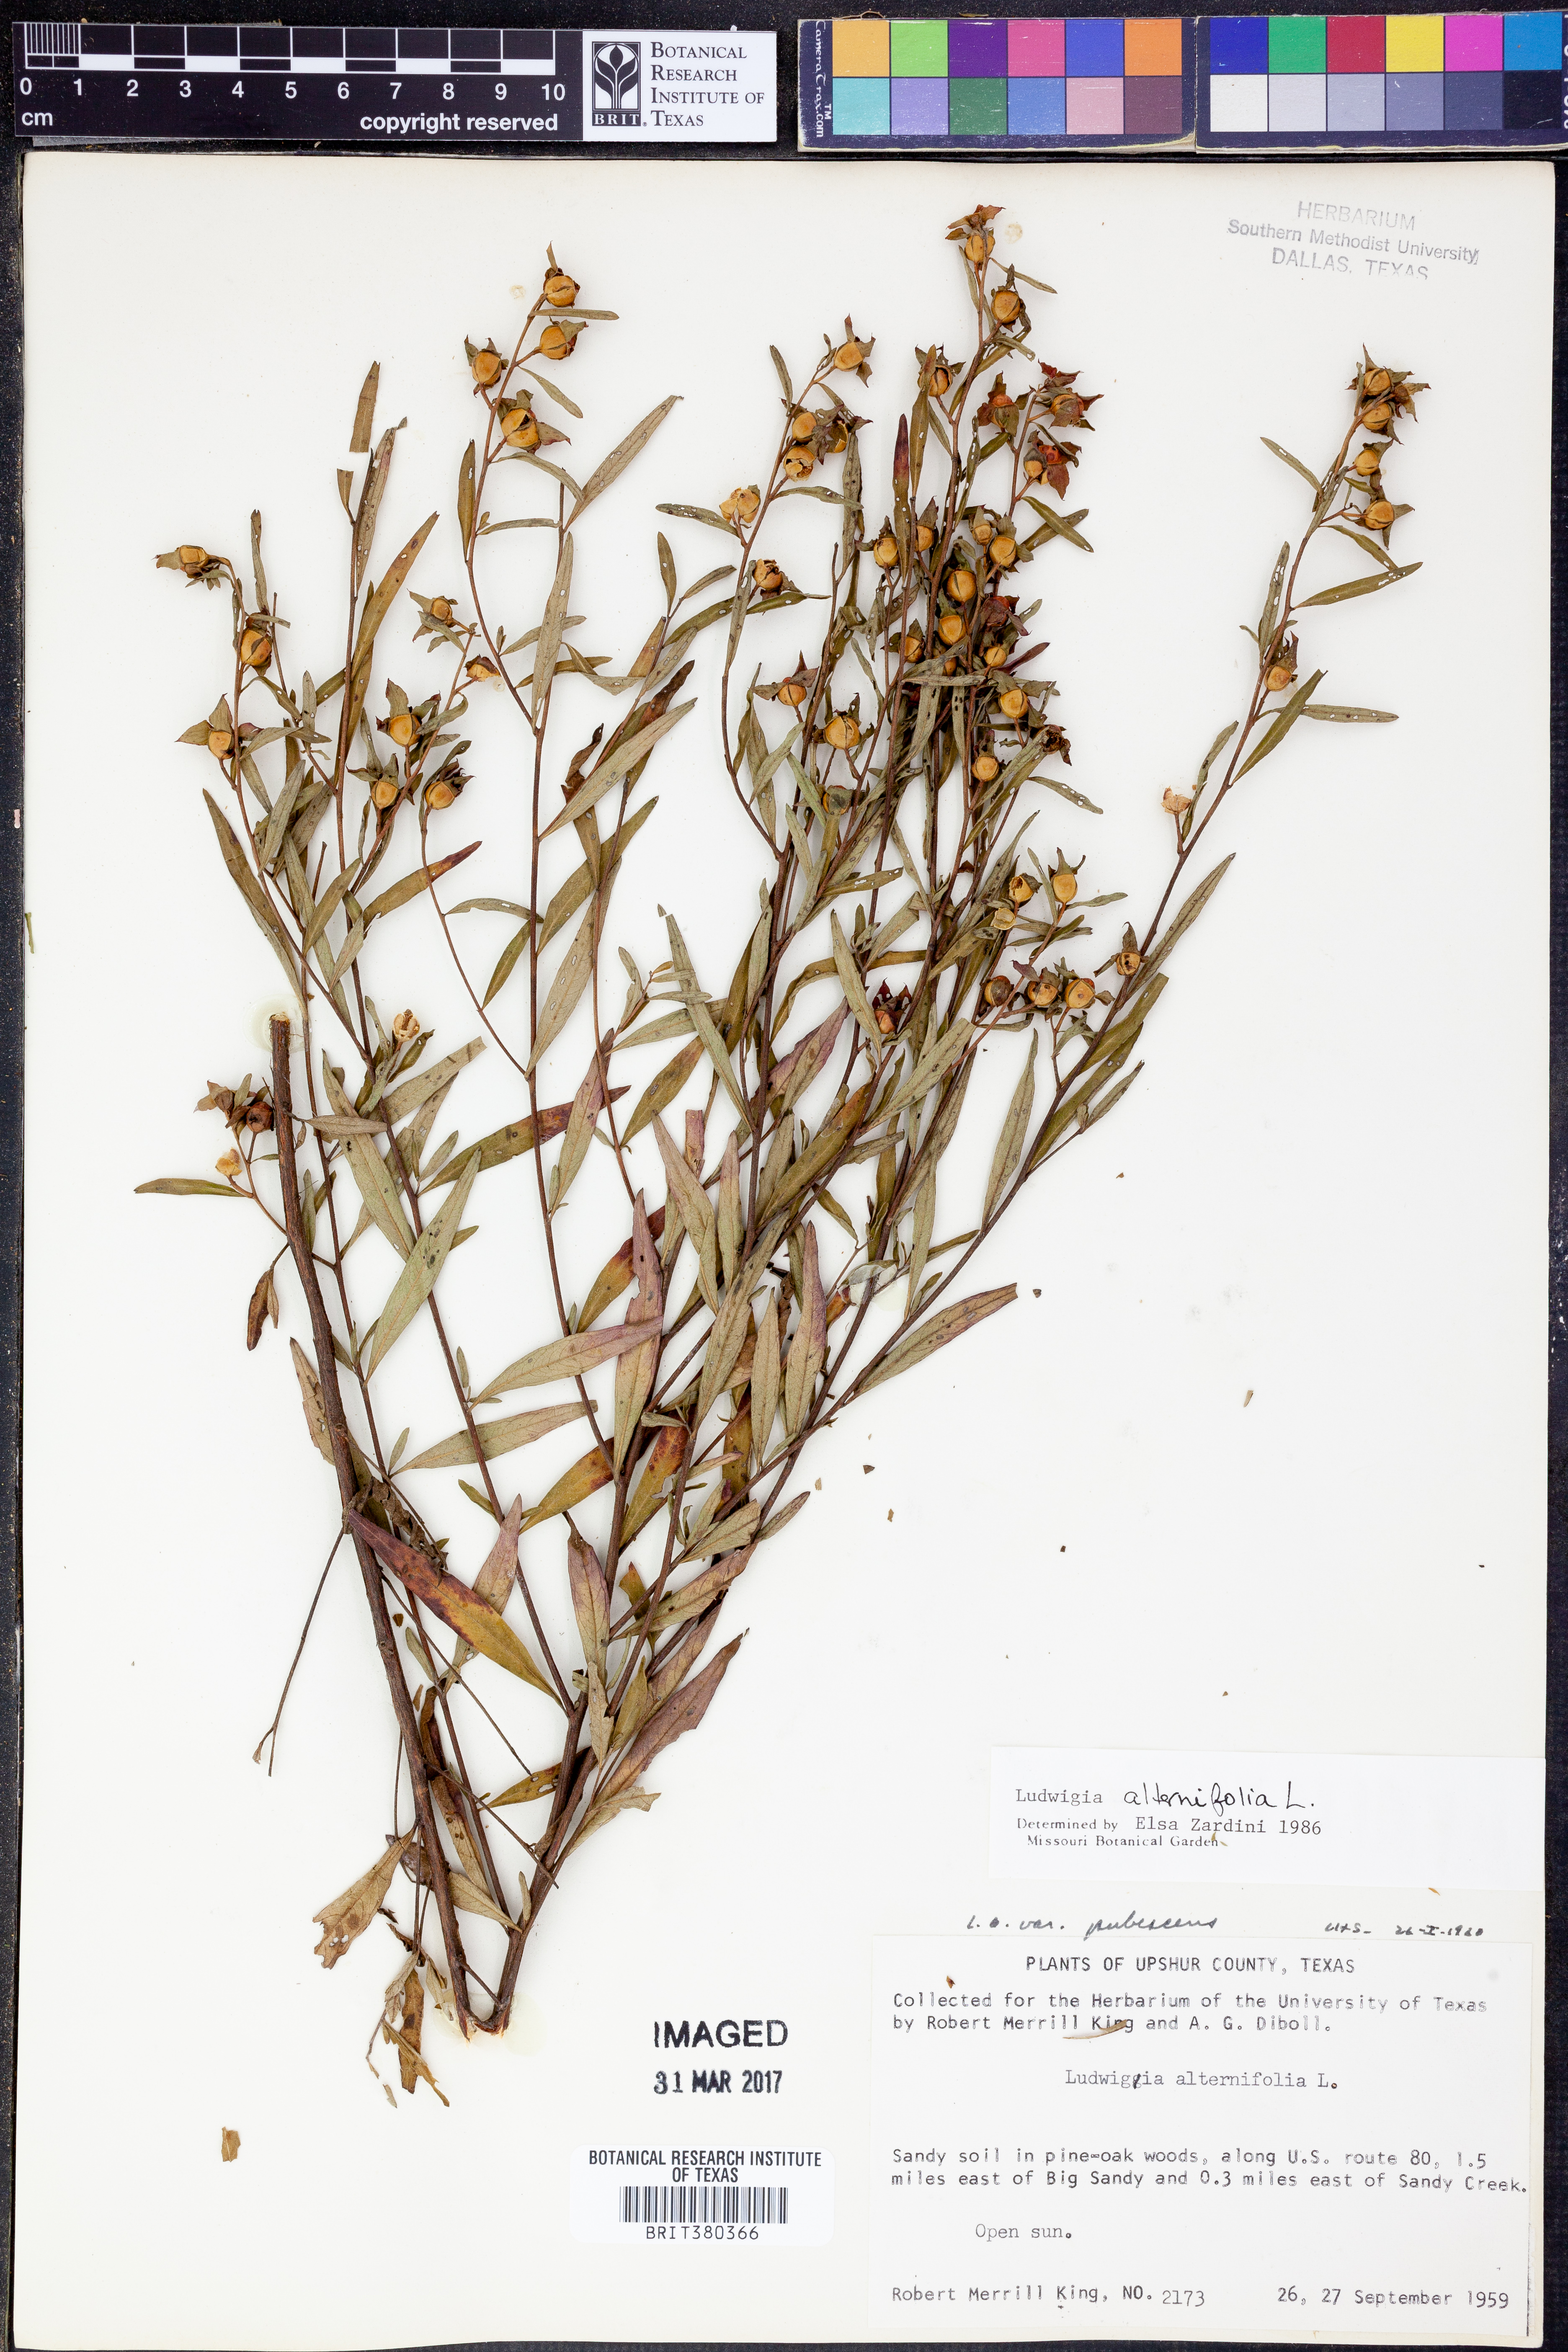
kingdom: Plantae
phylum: Tracheophyta
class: Magnoliopsida
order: Myrtales
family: Onagraceae
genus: Ludwigia
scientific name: Ludwigia alternifolia
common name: Rattlebox
